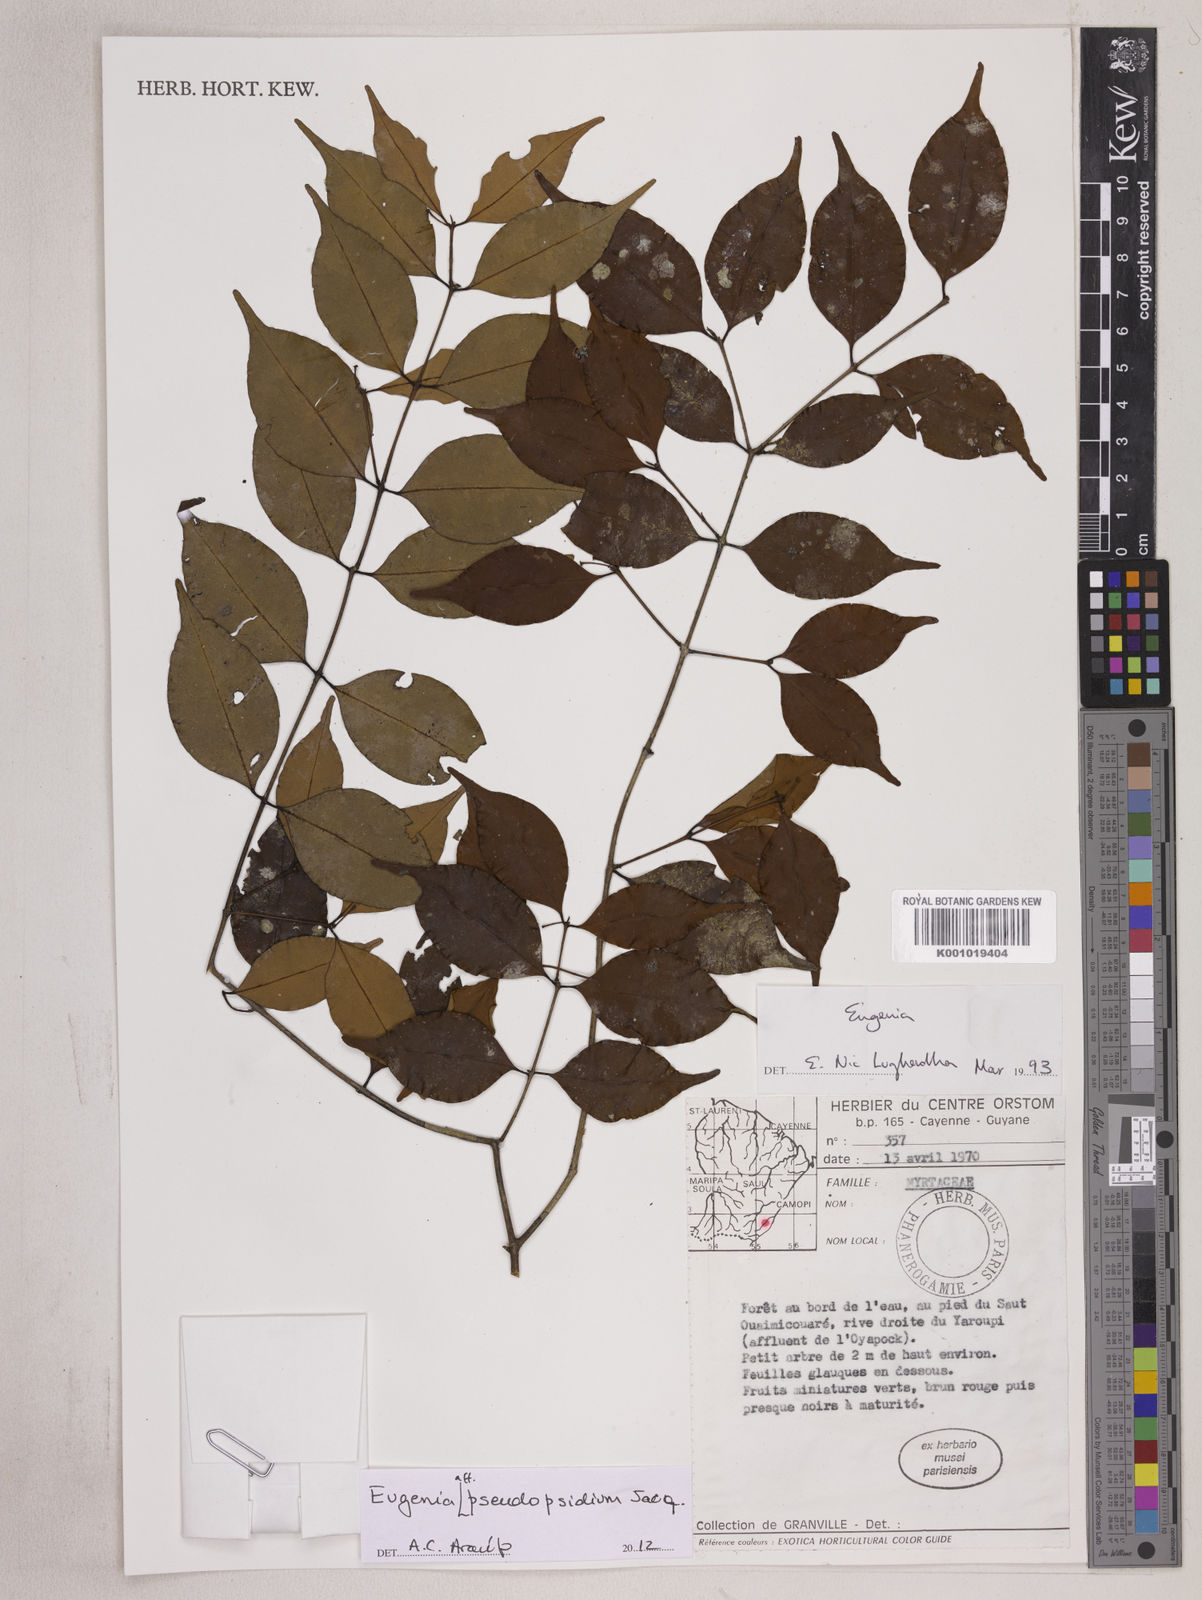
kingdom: Plantae
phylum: Tracheophyta
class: Magnoliopsida
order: Myrtales
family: Myrtaceae
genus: Eugenia
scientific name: Eugenia pseudopsidium
